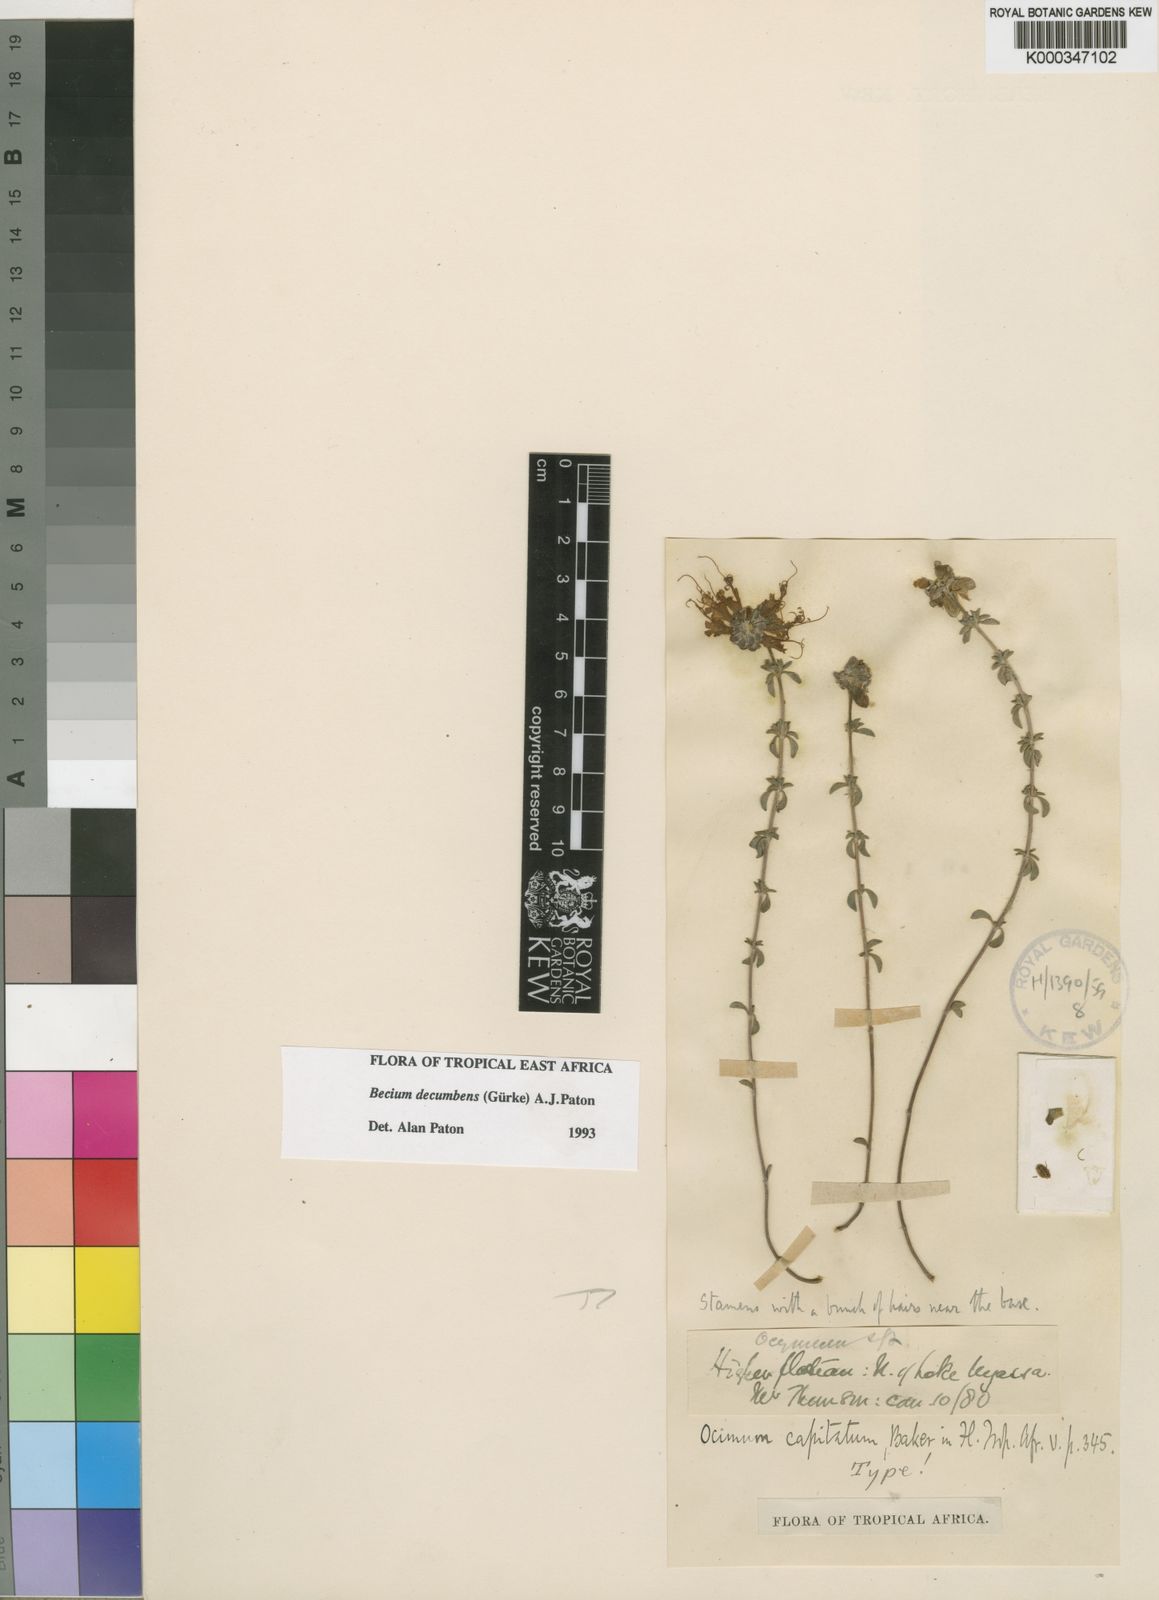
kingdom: Plantae
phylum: Tracheophyta
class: Magnoliopsida
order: Lamiales
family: Lamiaceae
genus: Ocimum
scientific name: Ocimum
